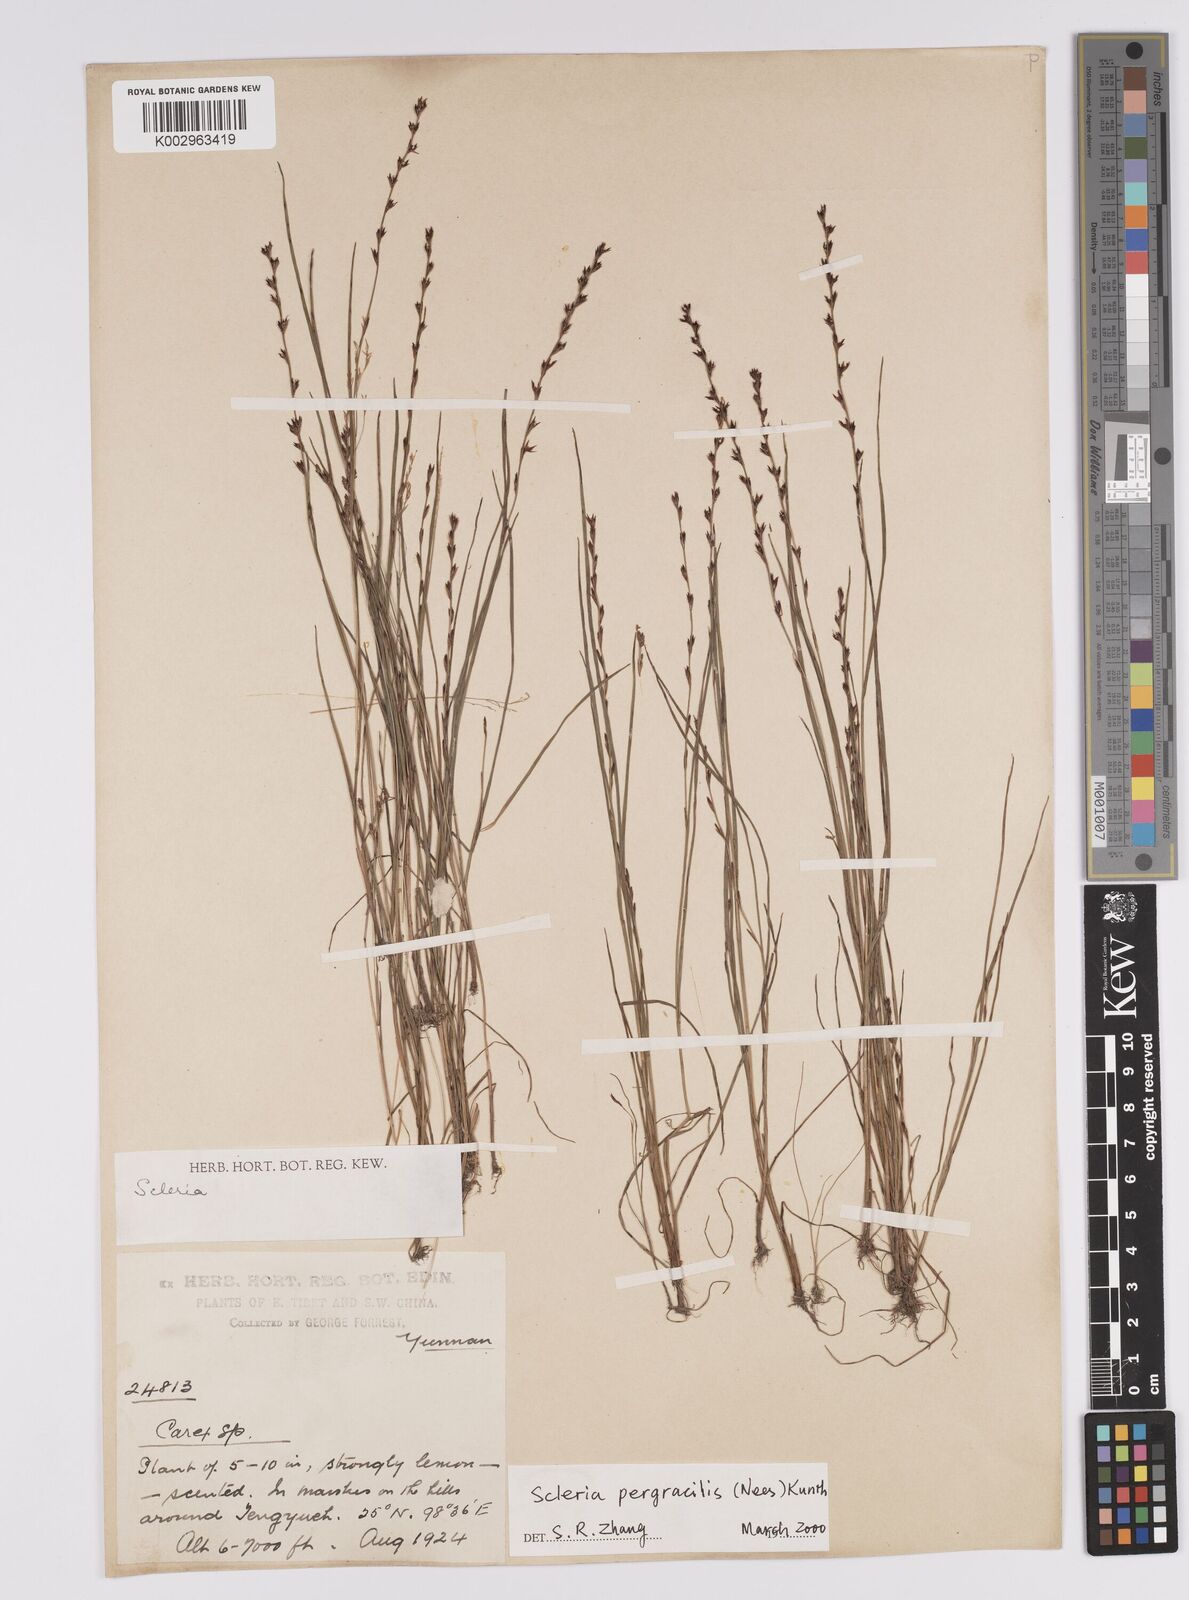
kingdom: Plantae
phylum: Tracheophyta
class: Liliopsida
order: Poales
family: Cyperaceae
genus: Scleria
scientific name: Scleria pergracilis
